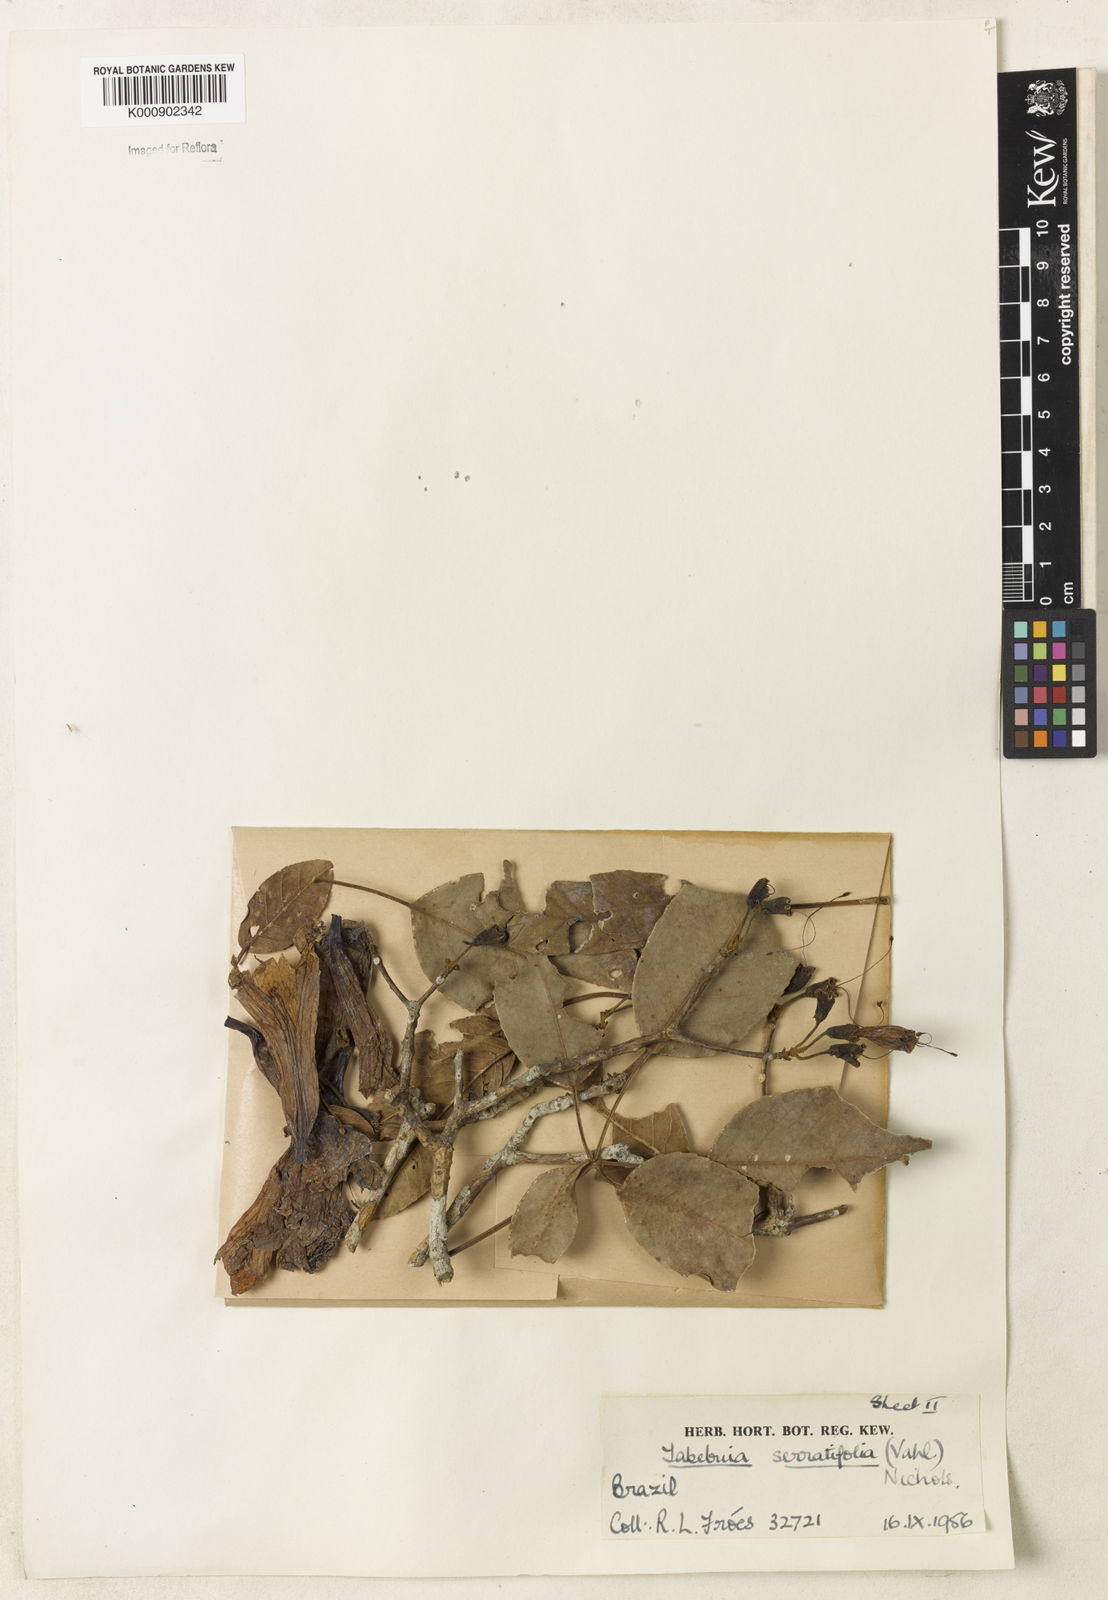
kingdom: Plantae
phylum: Tracheophyta
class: Magnoliopsida
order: Lamiales
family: Bignoniaceae
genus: Handroanthus
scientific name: Handroanthus serratifolius
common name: Yellow ipe
